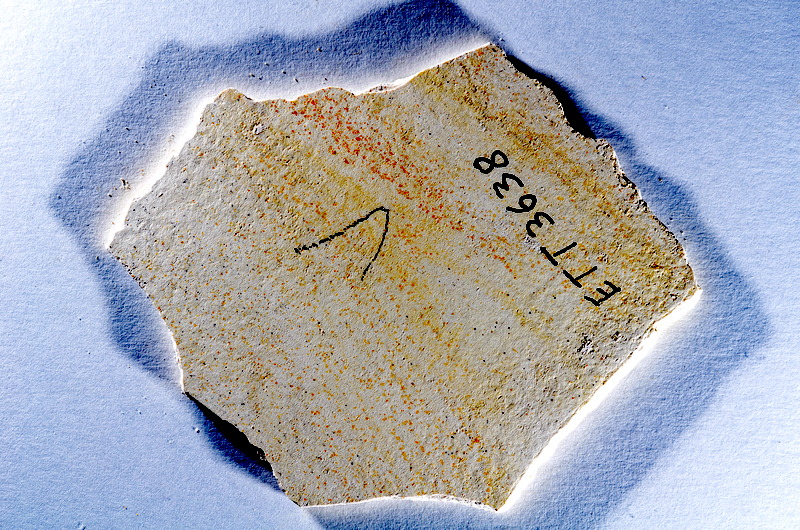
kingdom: Animalia
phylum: Chordata
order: Salmoniformes
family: Orthogonikleithridae
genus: Orthogonikleithrus
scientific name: Orthogonikleithrus hoelli
